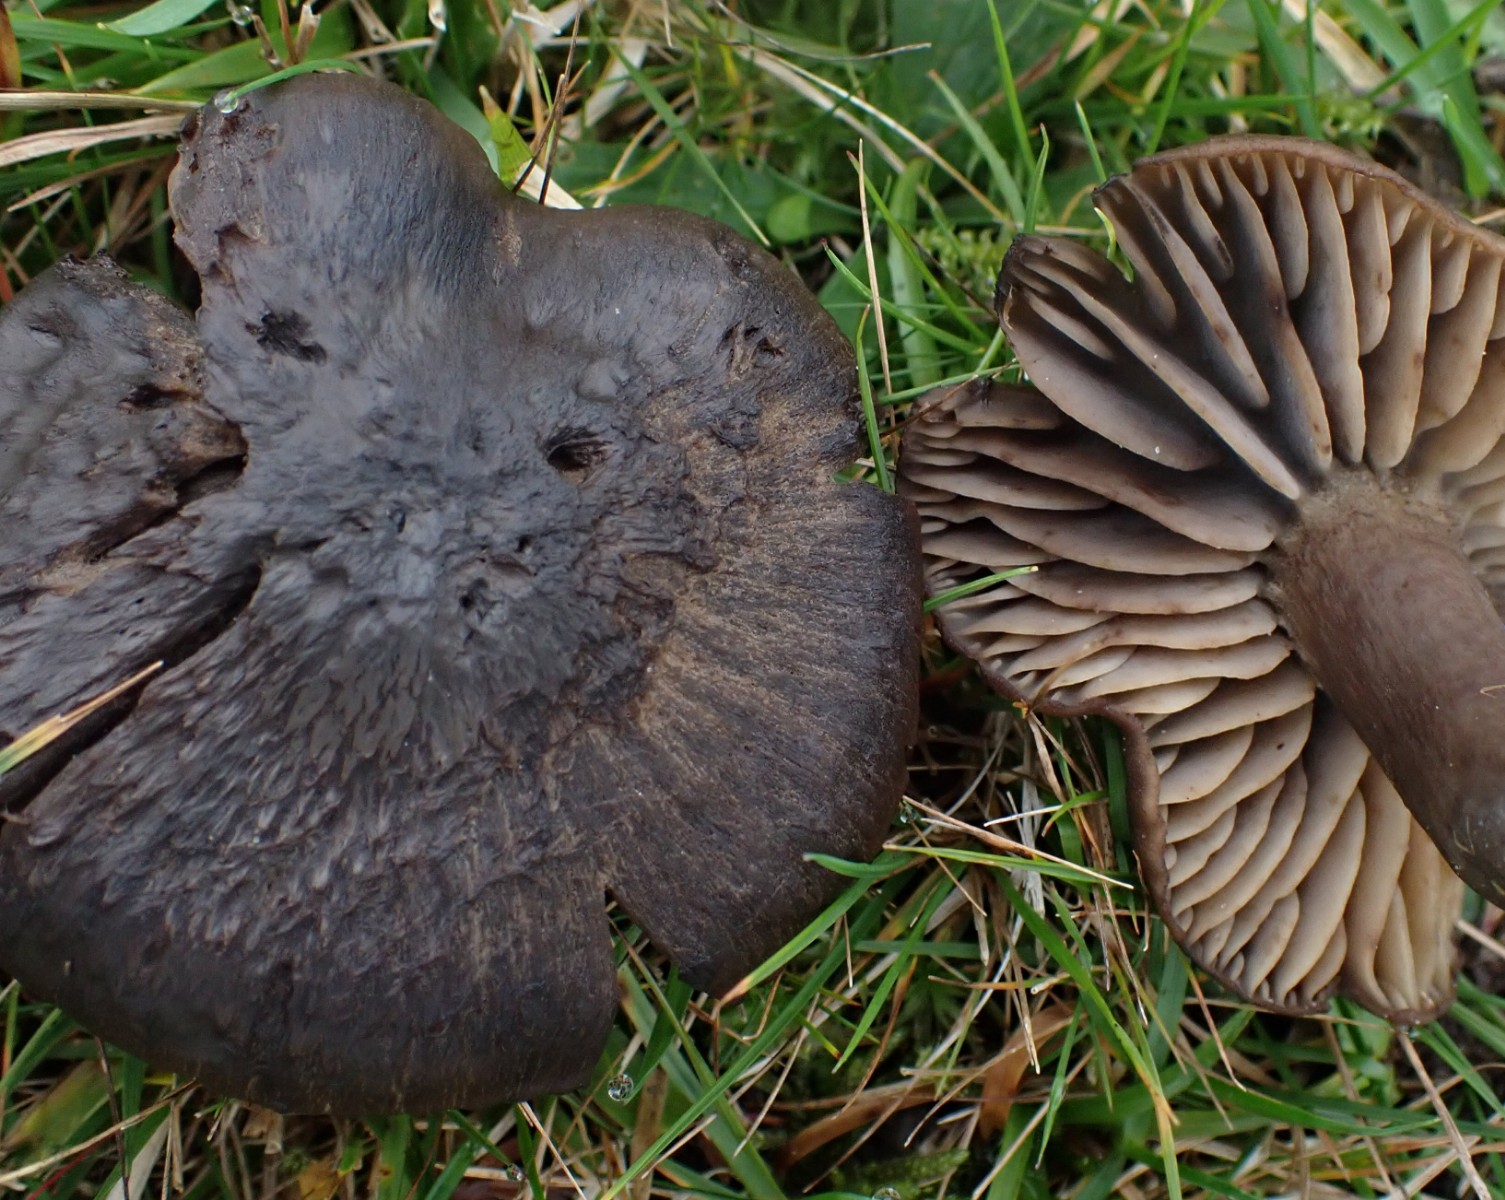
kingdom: Fungi
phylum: Basidiomycota
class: Agaricomycetes
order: Agaricales
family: Hygrophoraceae
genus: Neohygrocybe
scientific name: Neohygrocybe ovina
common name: rødmende vokshat
